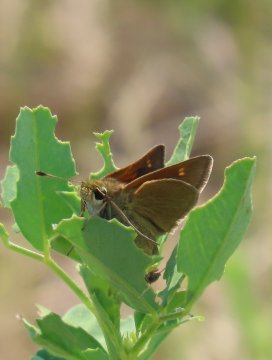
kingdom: Animalia
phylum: Arthropoda
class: Insecta
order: Lepidoptera
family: Hesperiidae
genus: Polites
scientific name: Polites themistocles
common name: Tawny-edged Skipper
